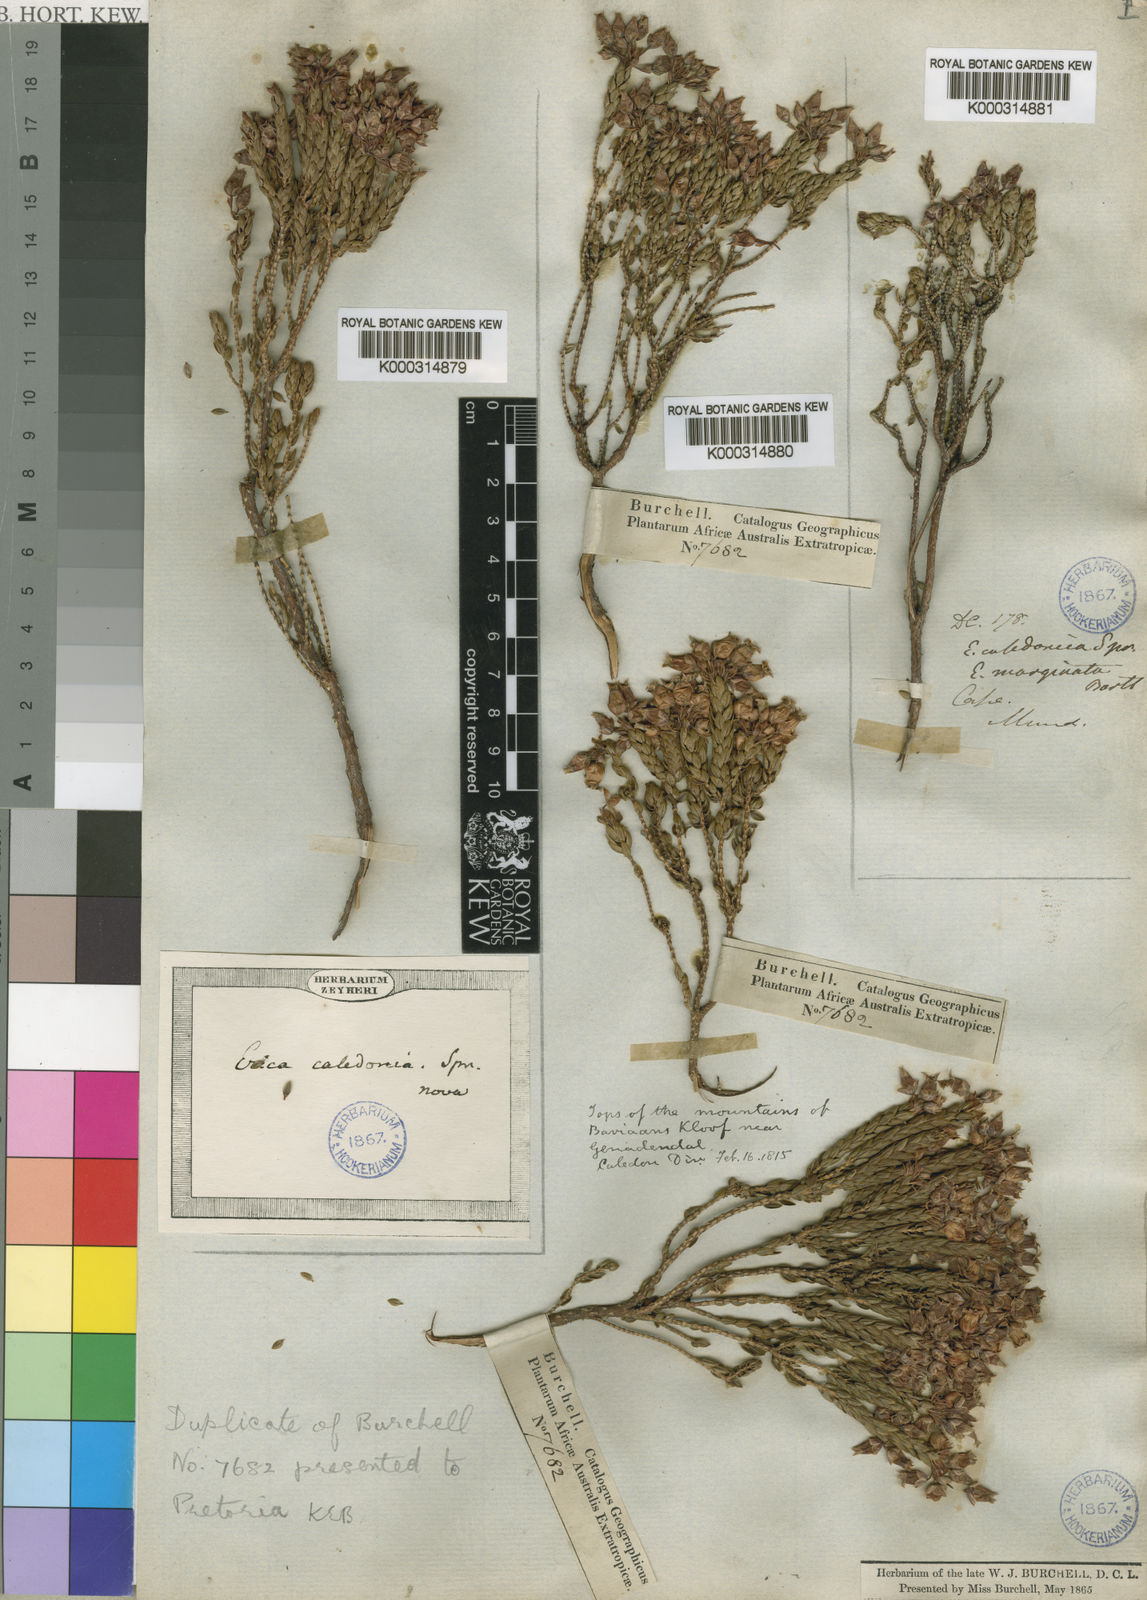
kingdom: Plantae
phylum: Tracheophyta
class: Magnoliopsida
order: Ericales
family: Ericaceae
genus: Erica
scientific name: Erica caledonica
